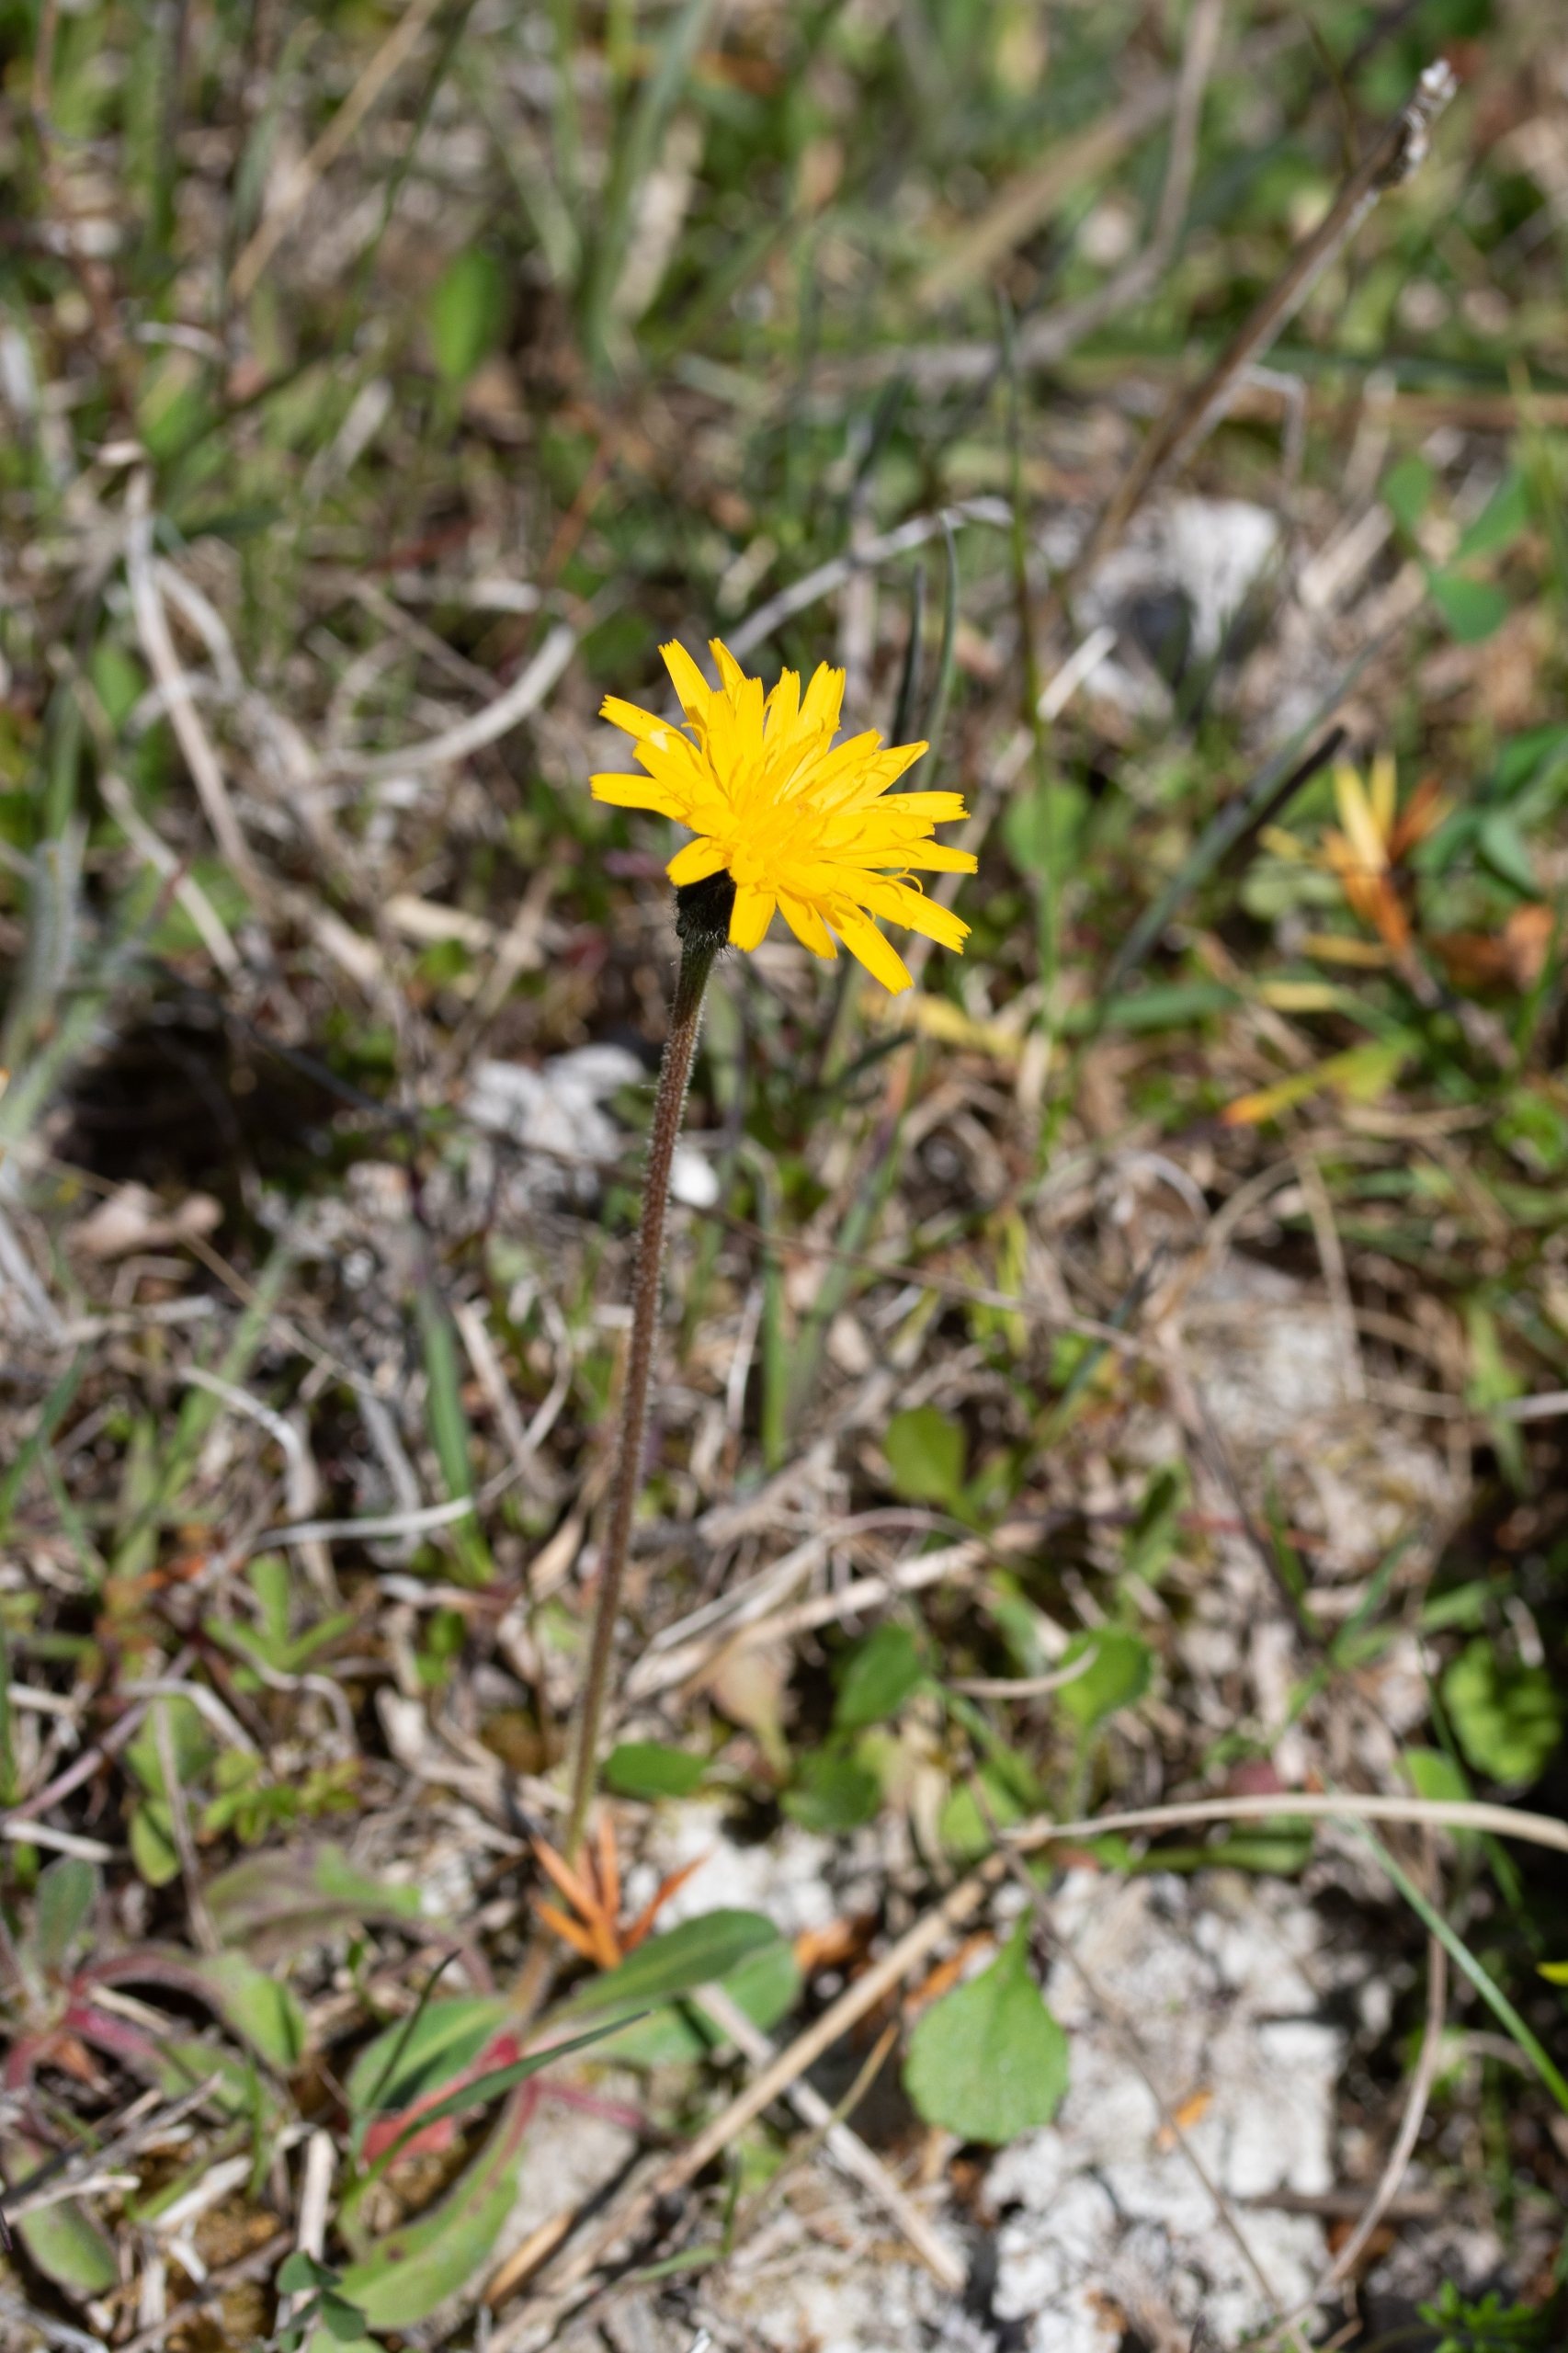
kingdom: Plantae
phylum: Tracheophyta
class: Magnoliopsida
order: Asterales
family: Asteraceae
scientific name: Asteraceae
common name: Kurvblomstfamilien
